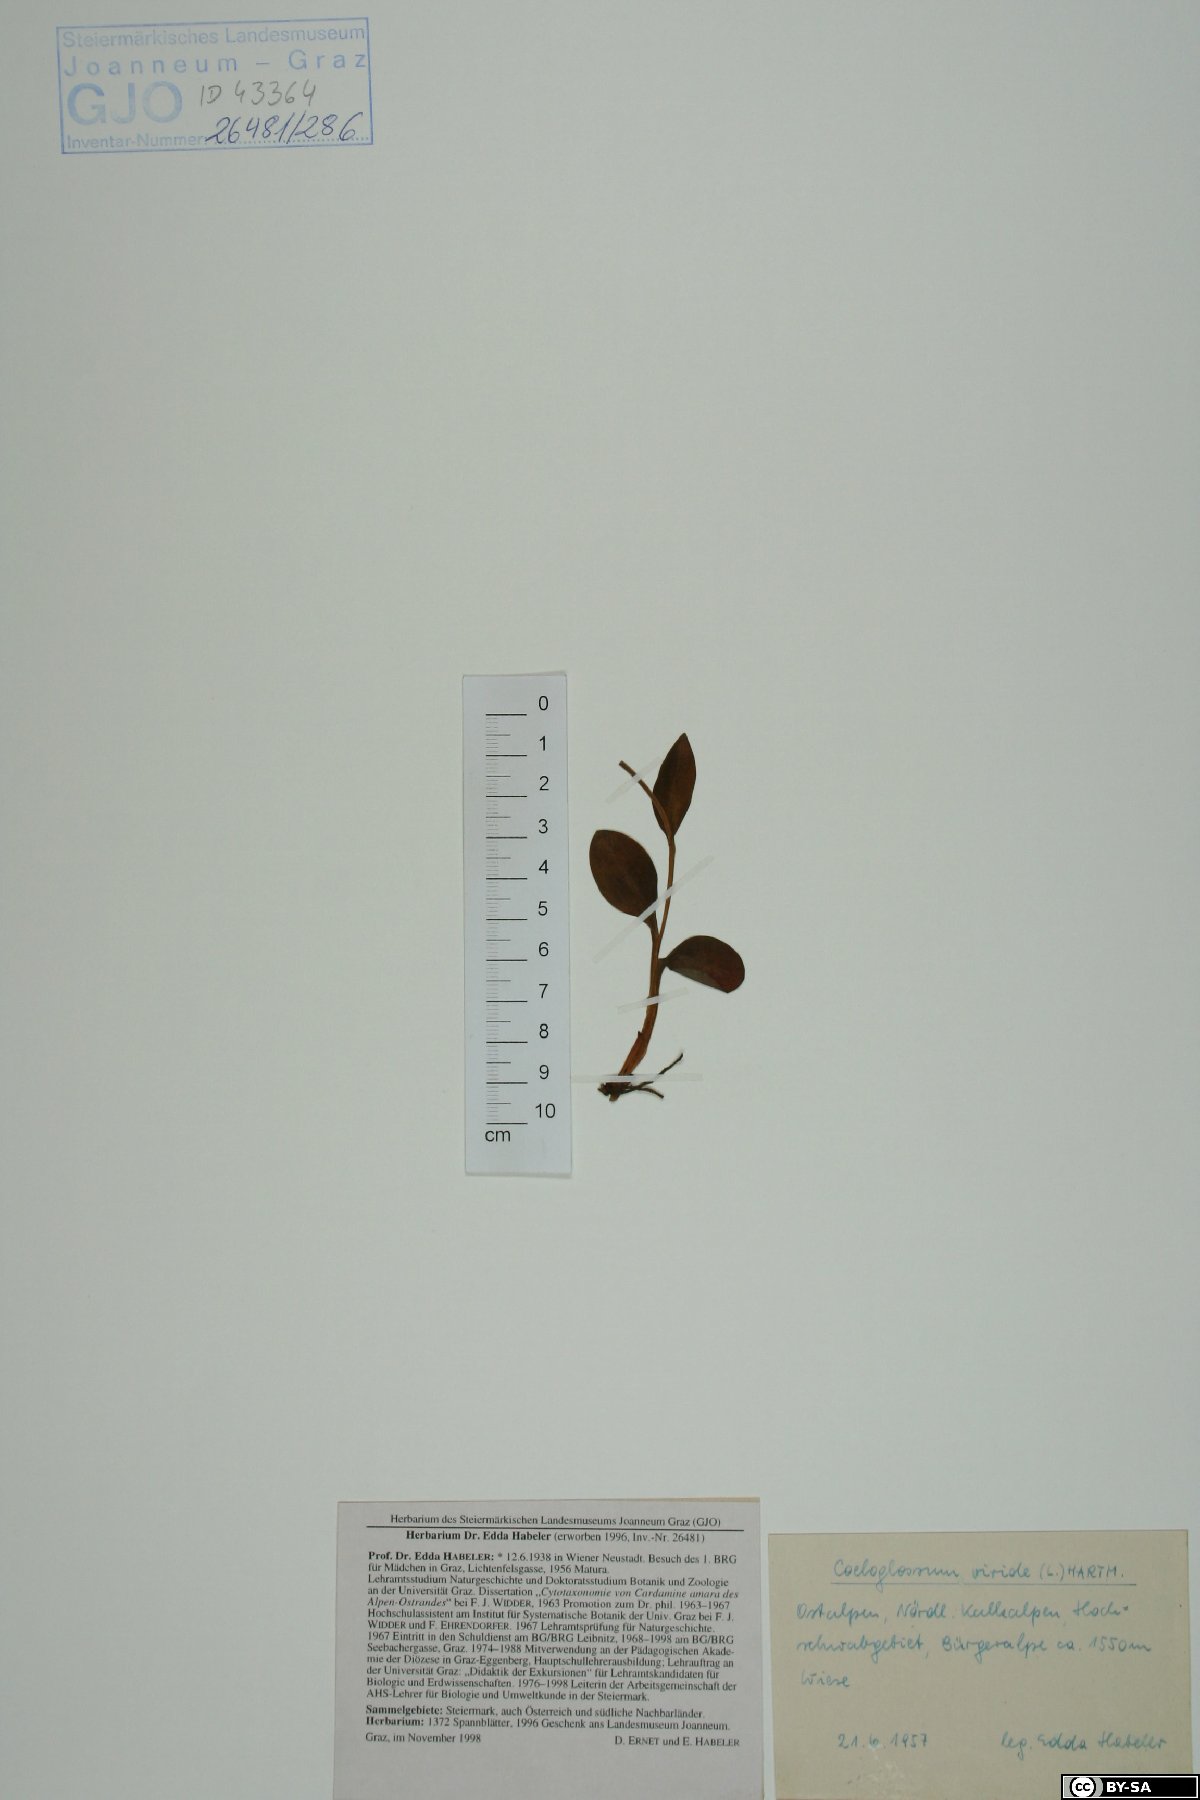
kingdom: Plantae
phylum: Tracheophyta
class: Liliopsida
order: Asparagales
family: Orchidaceae
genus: Dactylorhiza
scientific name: Dactylorhiza viridis
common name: Longbract frog orchid
